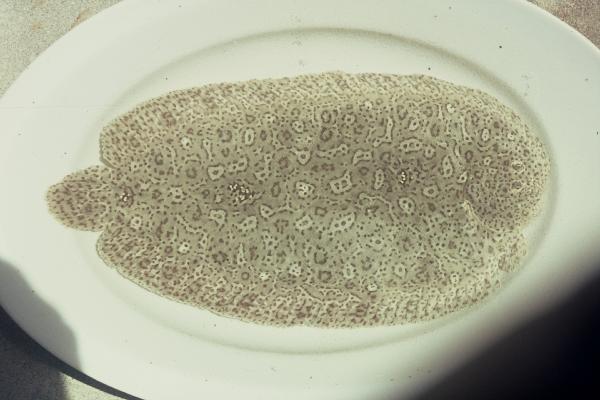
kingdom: Animalia
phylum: Chordata
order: Pleuronectiformes
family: Soleidae
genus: Pardachirus
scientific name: Pardachirus marmoratus
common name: Finless sole
